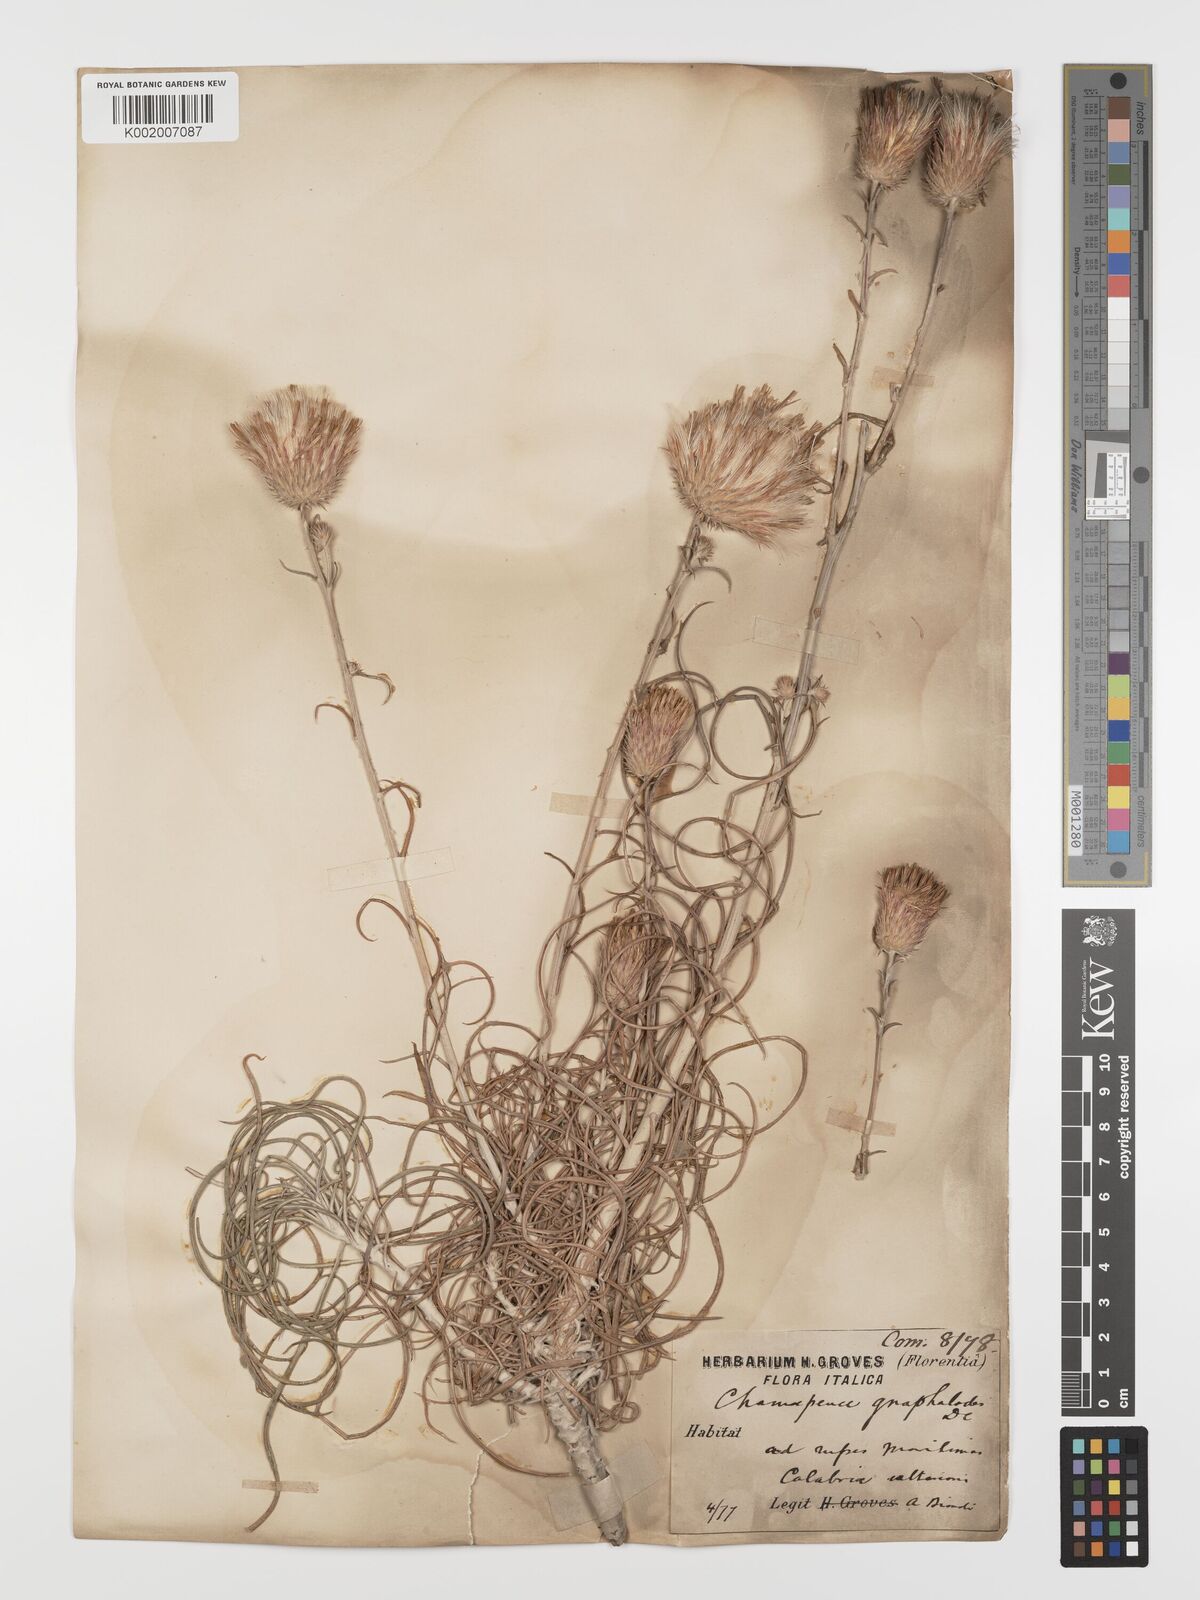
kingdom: Plantae
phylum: Tracheophyta
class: Magnoliopsida
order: Asterales
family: Asteraceae
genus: Ptilostemon
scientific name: Ptilostemon gnaphaloides
